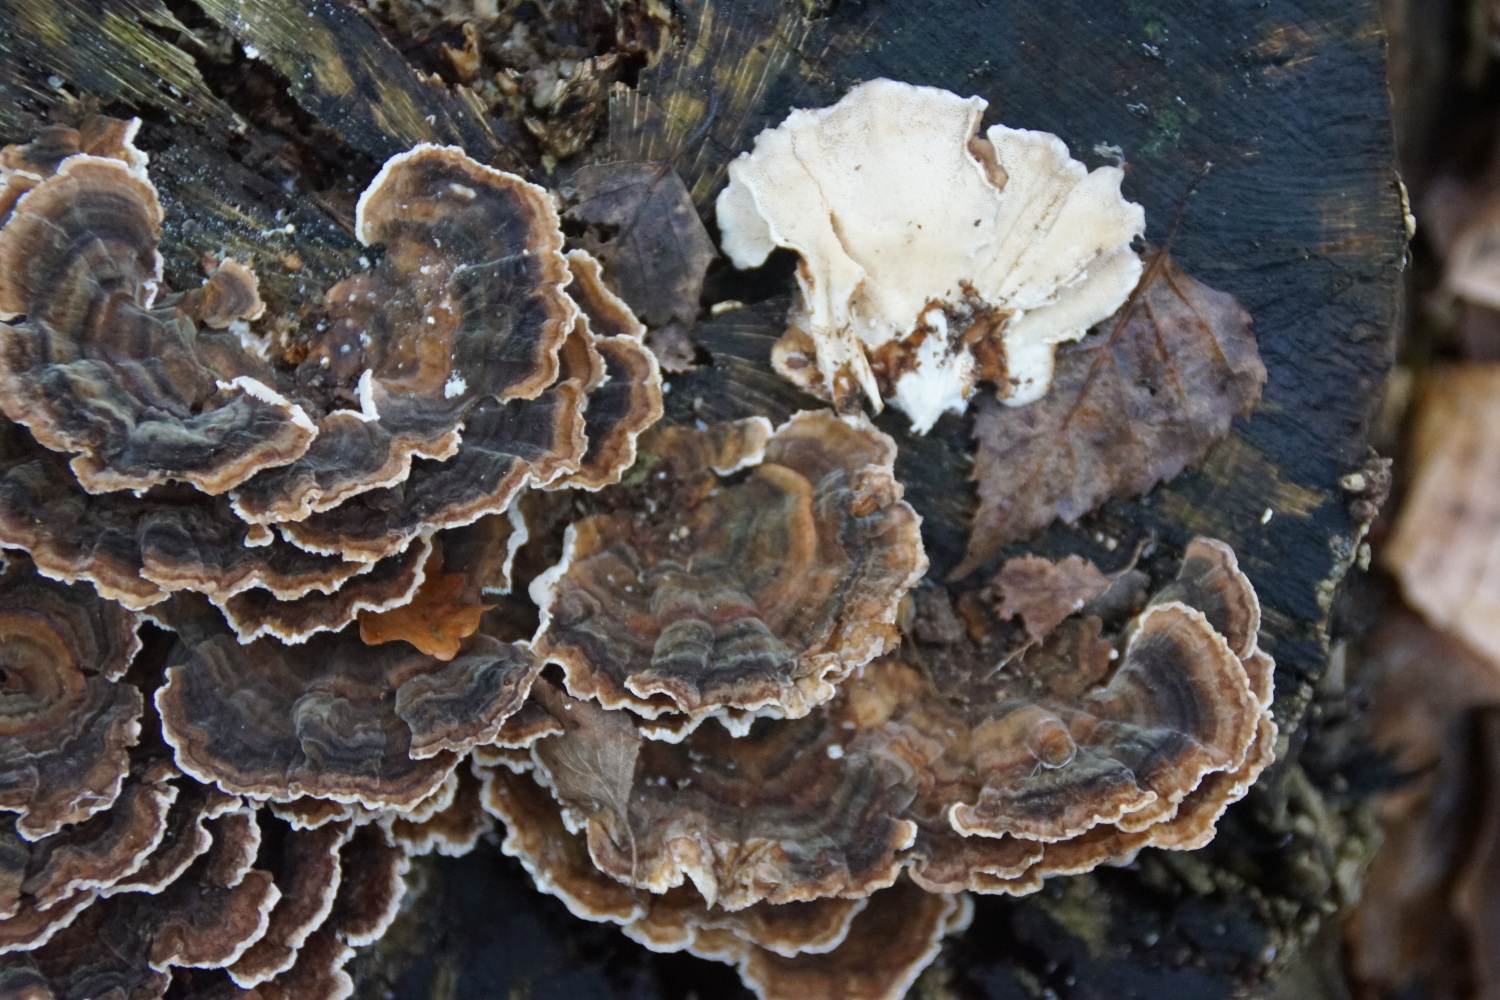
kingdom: Fungi
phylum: Basidiomycota
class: Agaricomycetes
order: Polyporales
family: Polyporaceae
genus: Trametes
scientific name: Trametes versicolor
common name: broget læderporesvamp
